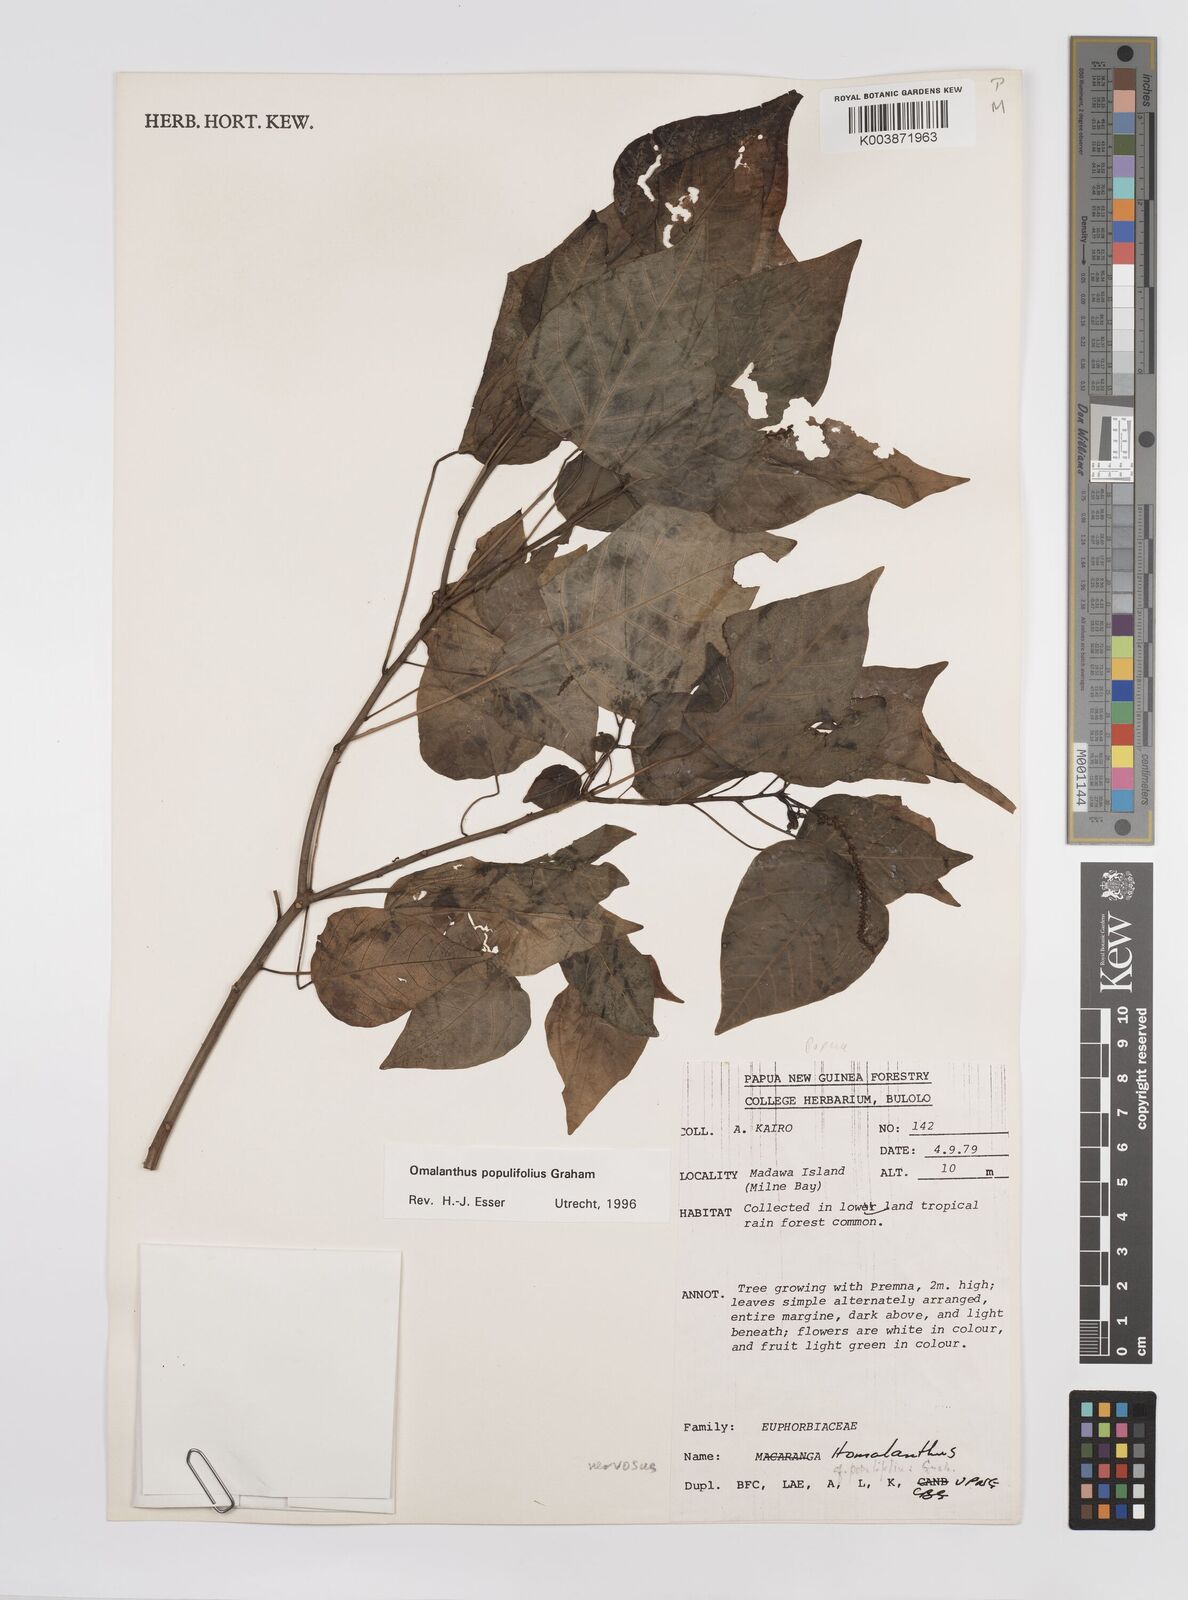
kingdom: Plantae
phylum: Tracheophyta
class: Magnoliopsida
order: Malpighiales
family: Euphorbiaceae
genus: Homalanthus
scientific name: Homalanthus populifolius
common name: Queensland poplar
